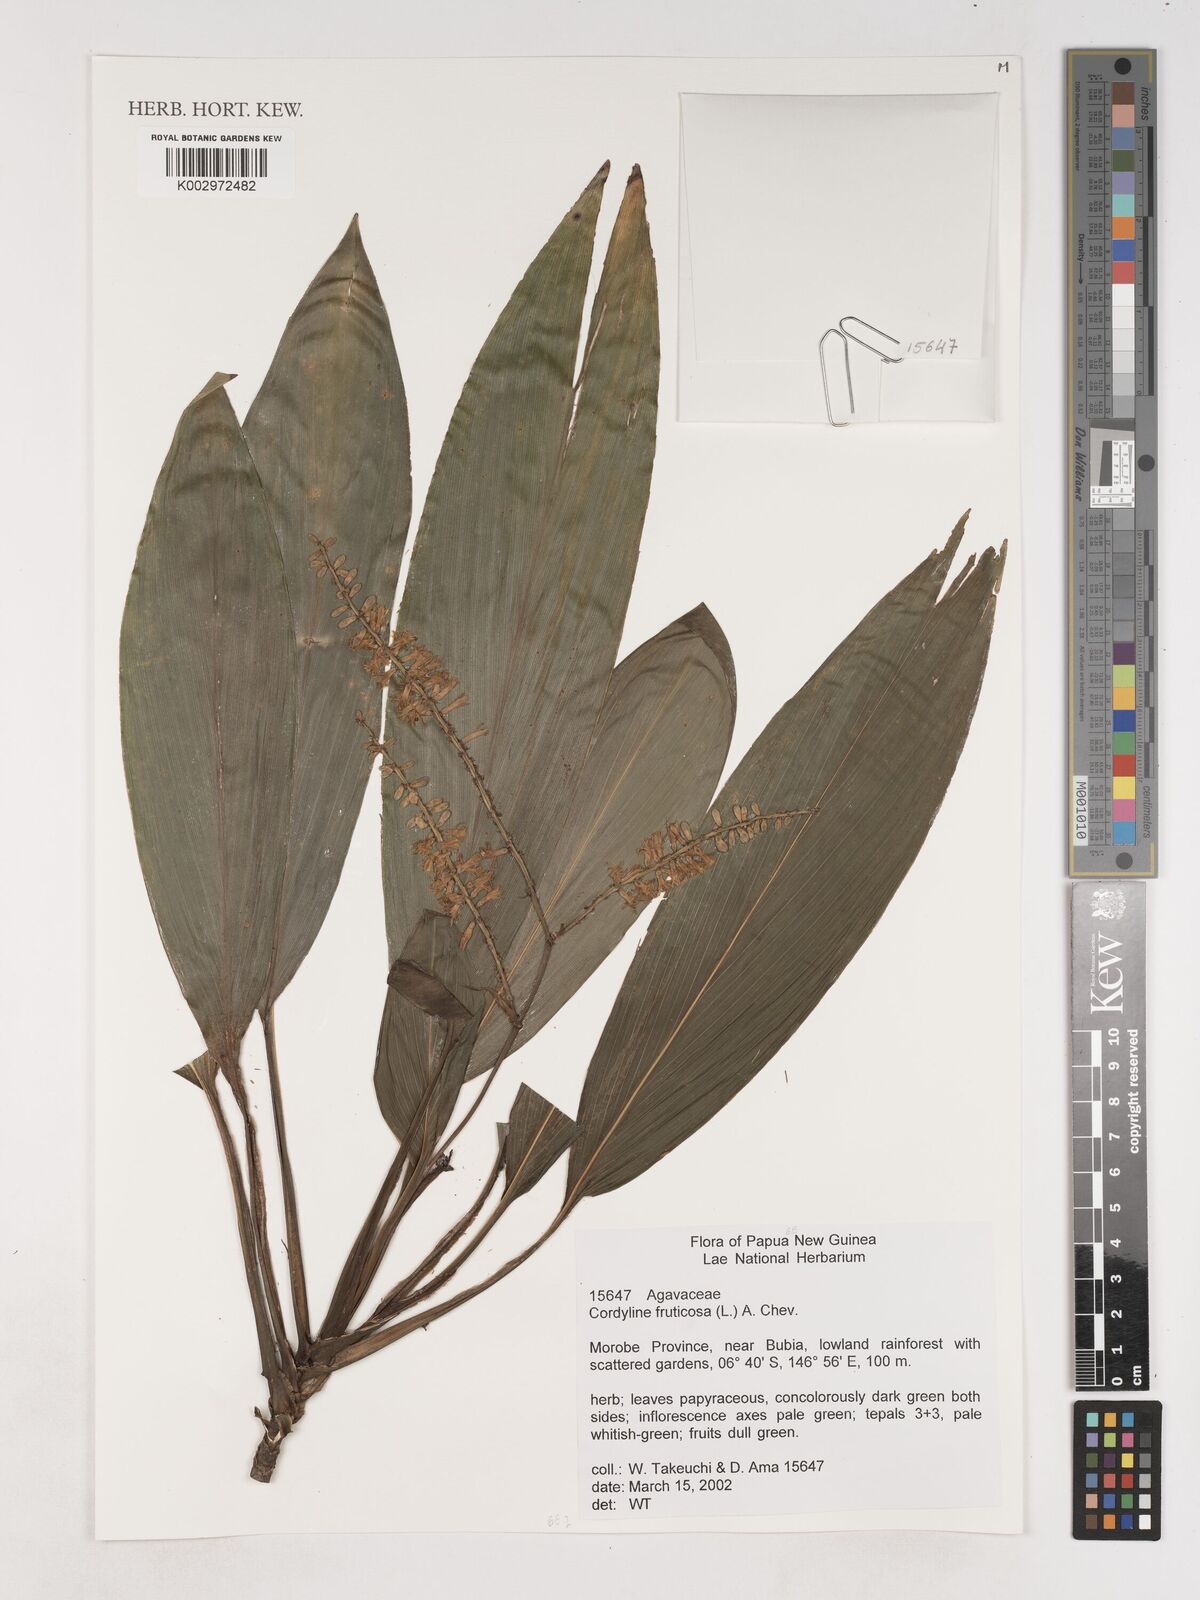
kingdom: Plantae
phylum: Tracheophyta
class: Liliopsida
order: Asparagales
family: Asparagaceae
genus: Cordyline
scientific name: Cordyline fruticosa
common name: Good-luck-plant
